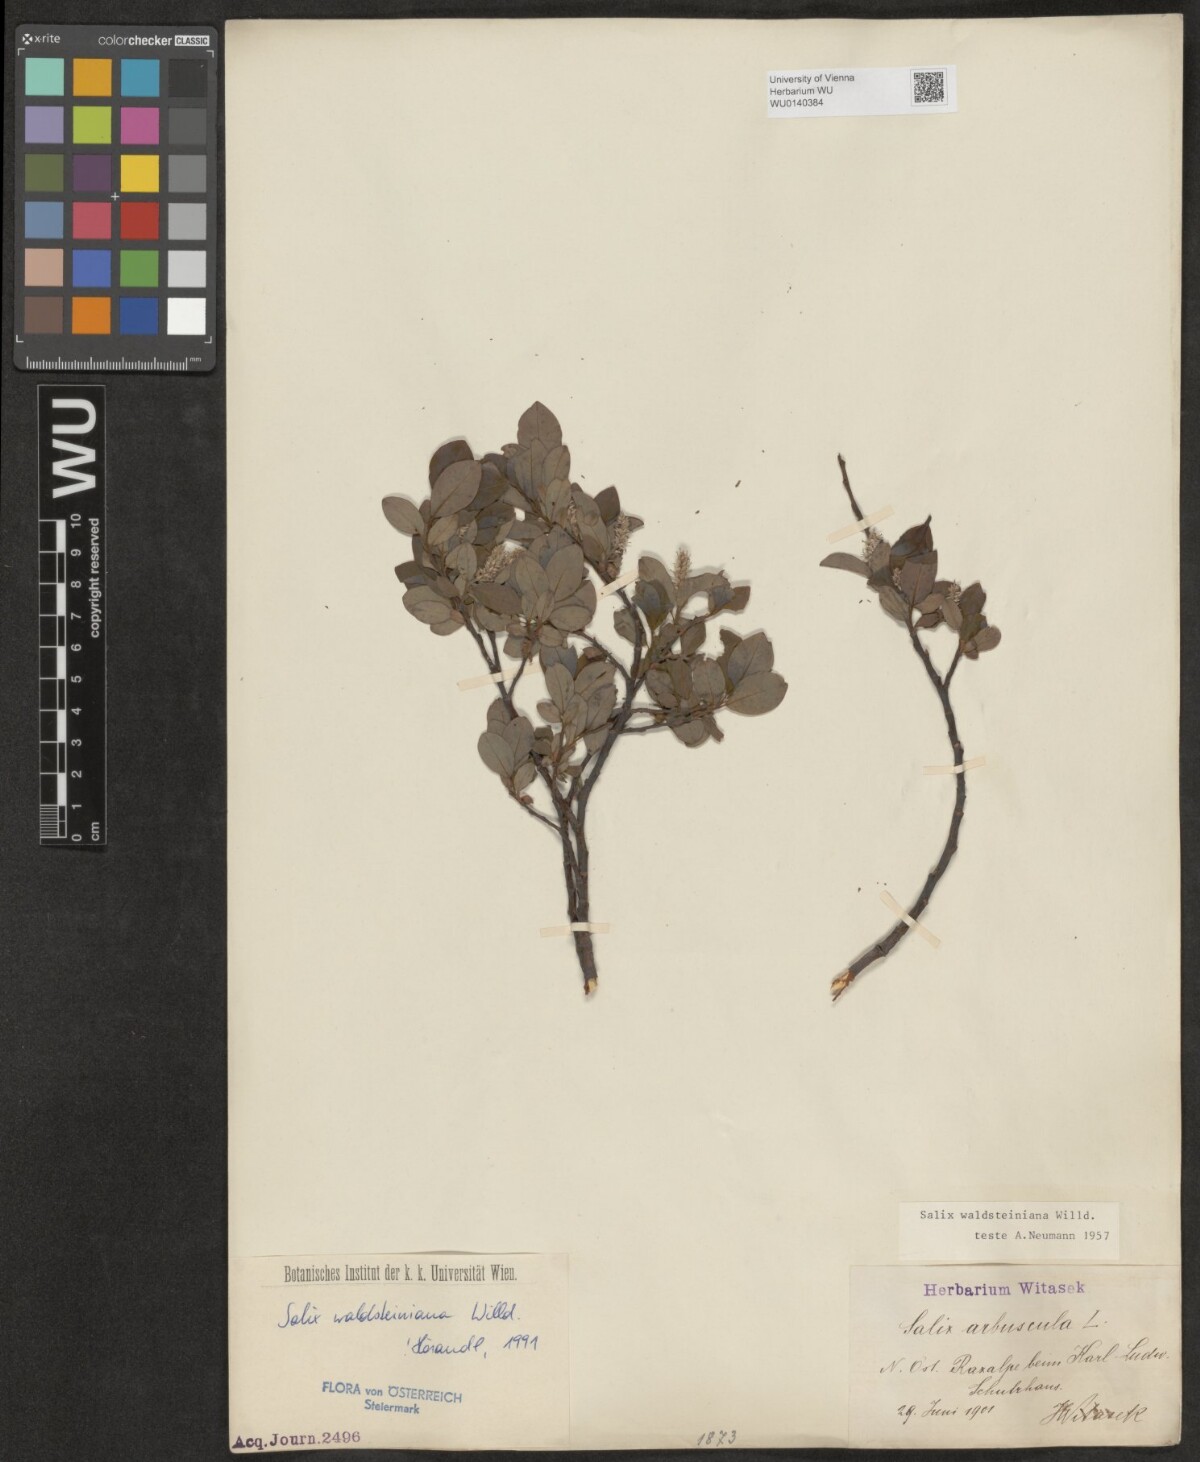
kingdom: Plantae
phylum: Tracheophyta
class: Magnoliopsida
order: Malpighiales
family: Salicaceae
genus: Salix
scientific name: Salix waldsteiniana
